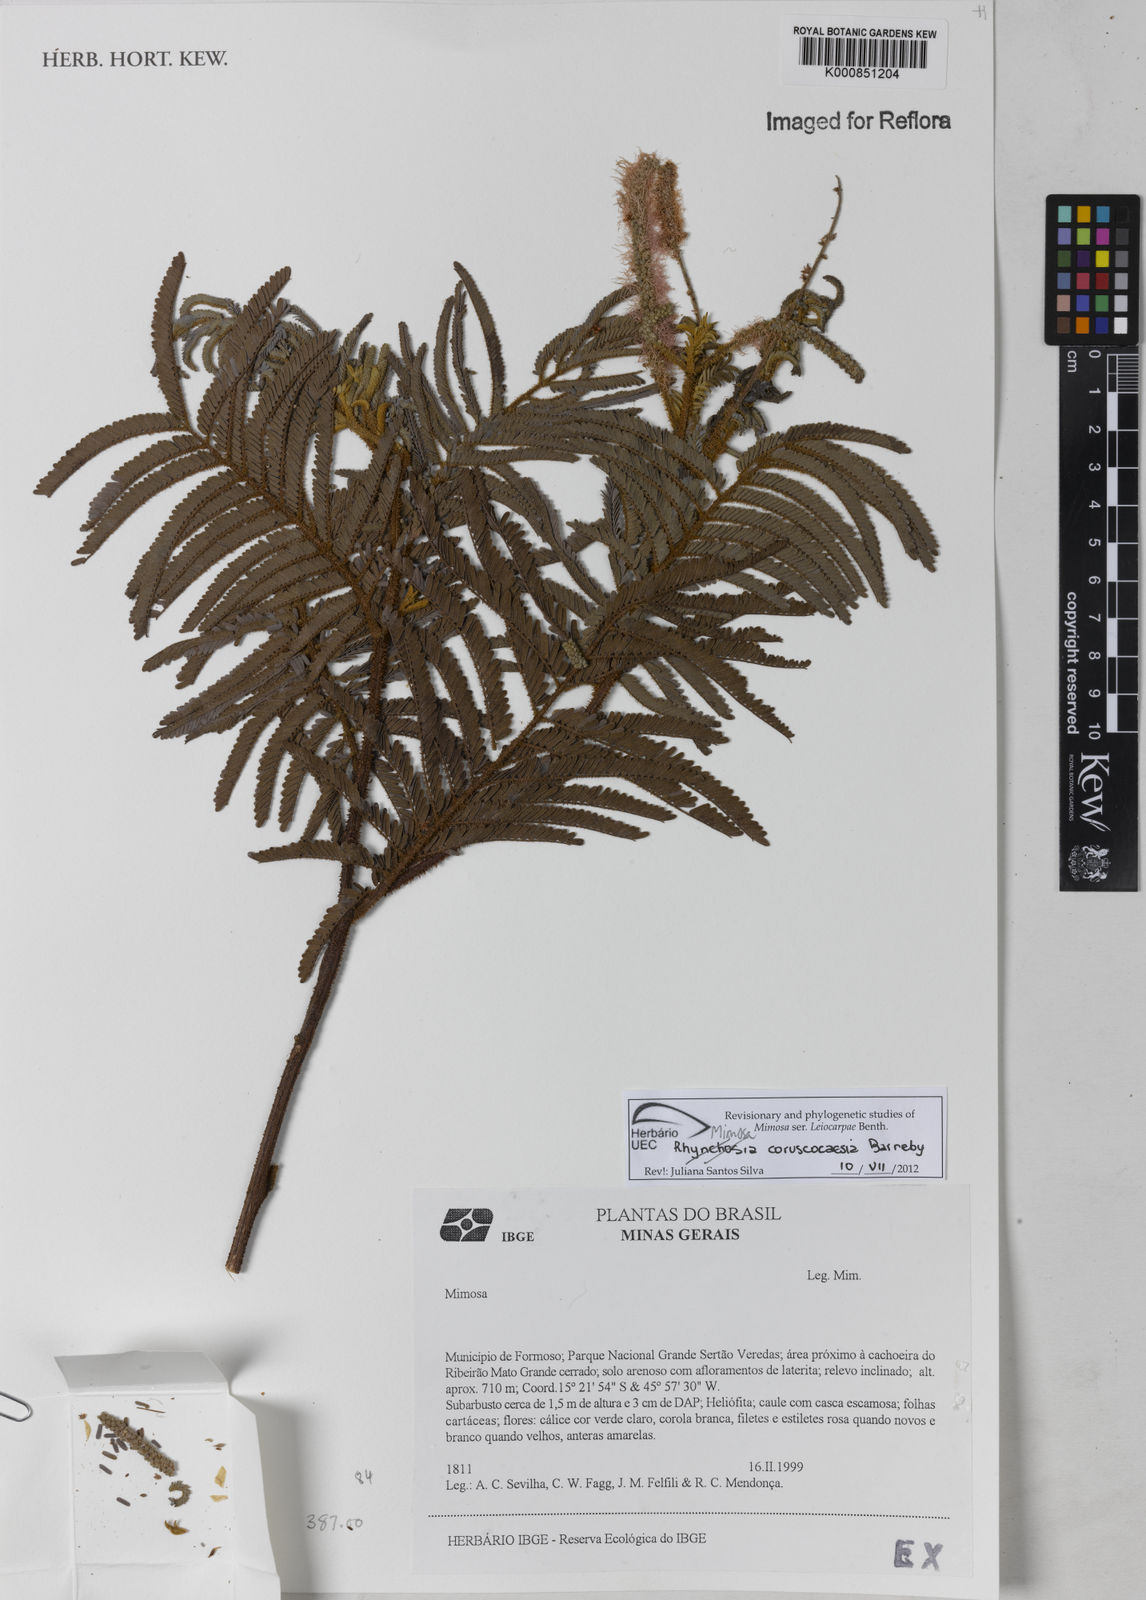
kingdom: Plantae
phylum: Tracheophyta
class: Magnoliopsida
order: Fabales
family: Fabaceae
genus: Mimosa
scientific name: Mimosa coruscocaesia
